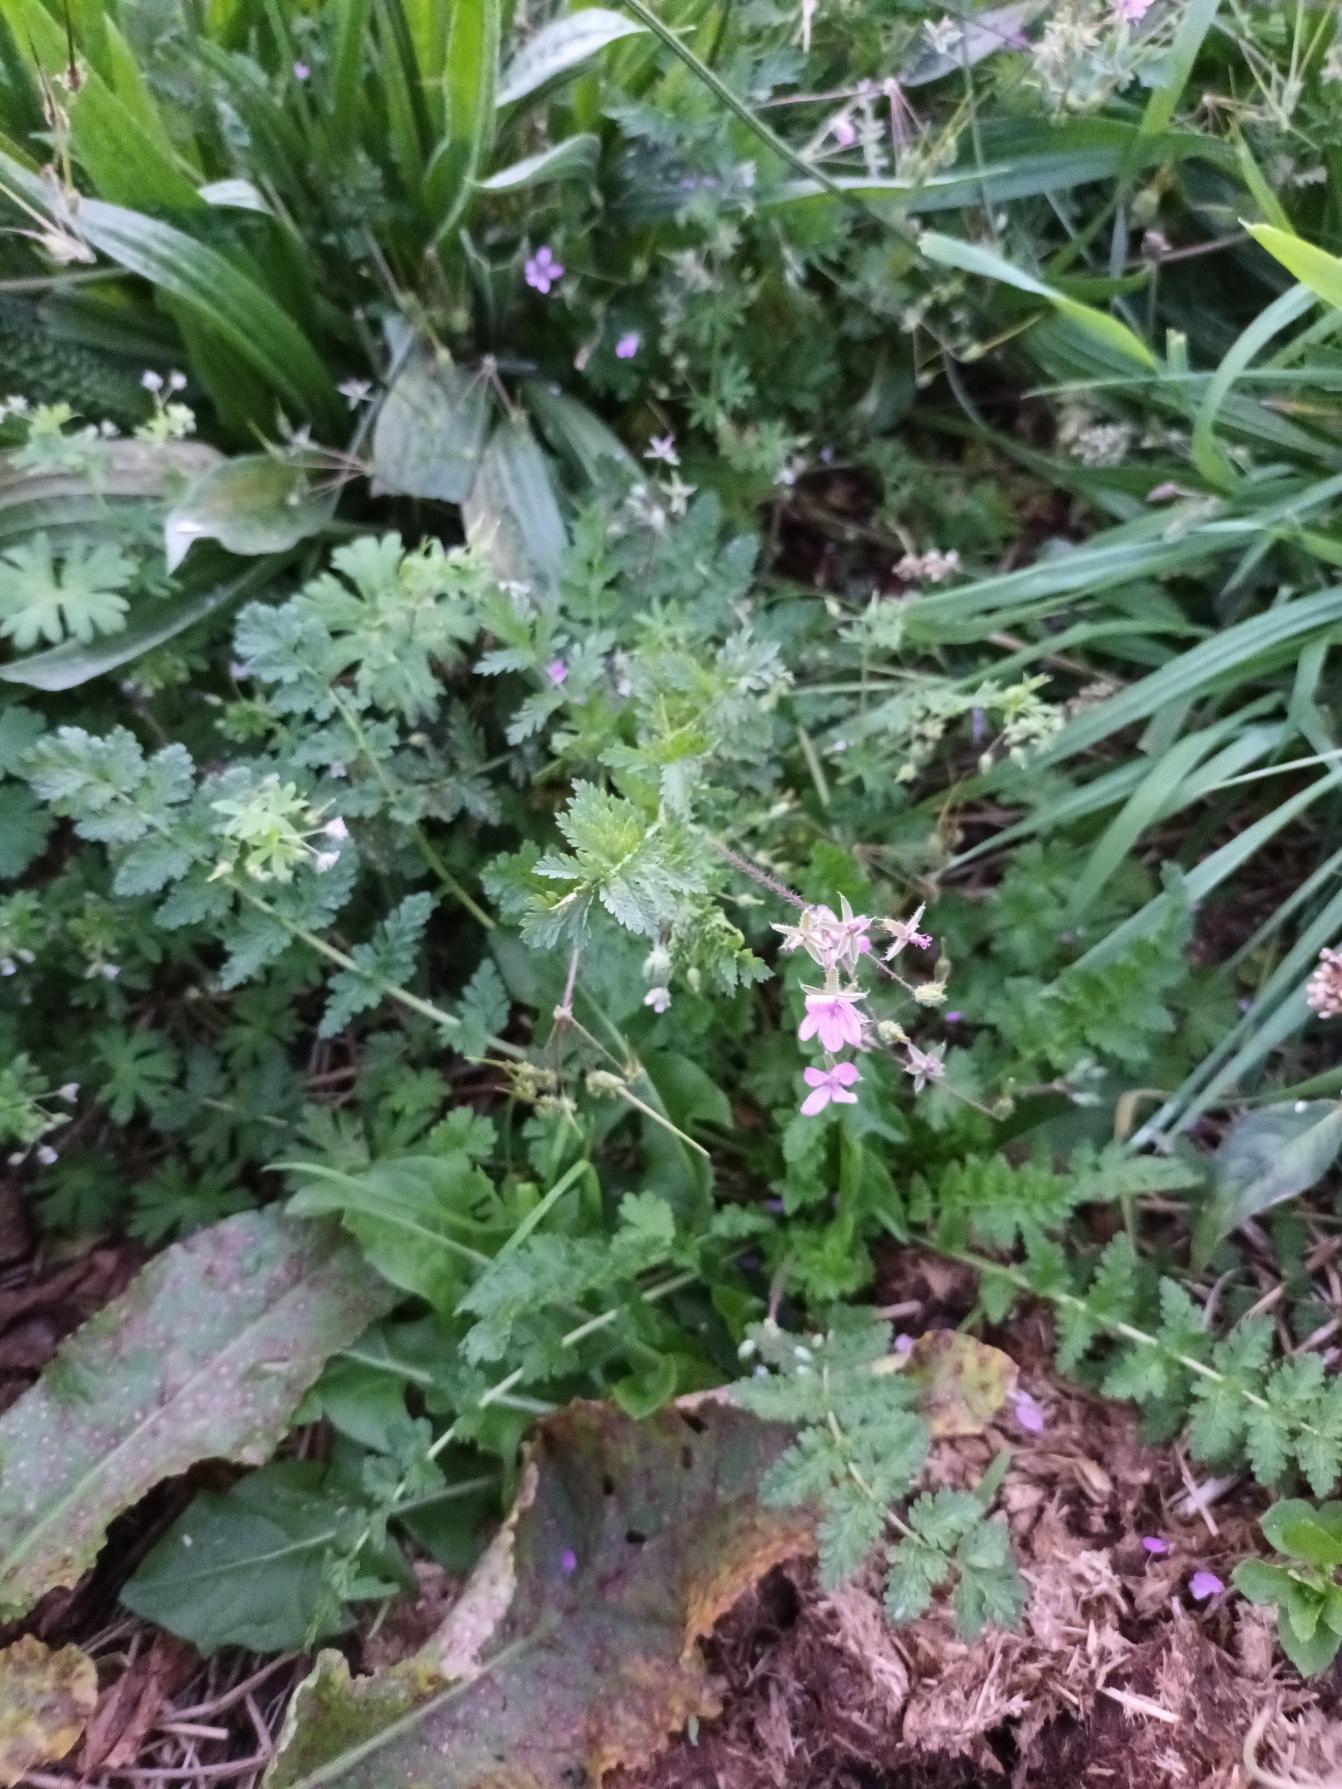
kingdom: Plantae
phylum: Tracheophyta
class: Magnoliopsida
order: Geraniales
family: Geraniaceae
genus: Erodium
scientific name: Erodium cicutarium
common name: Hejrenæb
